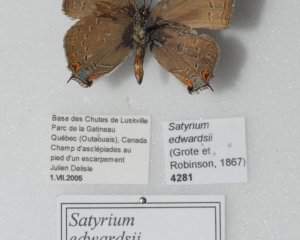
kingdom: Animalia
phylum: Arthropoda
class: Insecta
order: Lepidoptera
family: Lycaenidae
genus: Satyrium
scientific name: Satyrium edwardsii
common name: Edwards' Hairstreak
